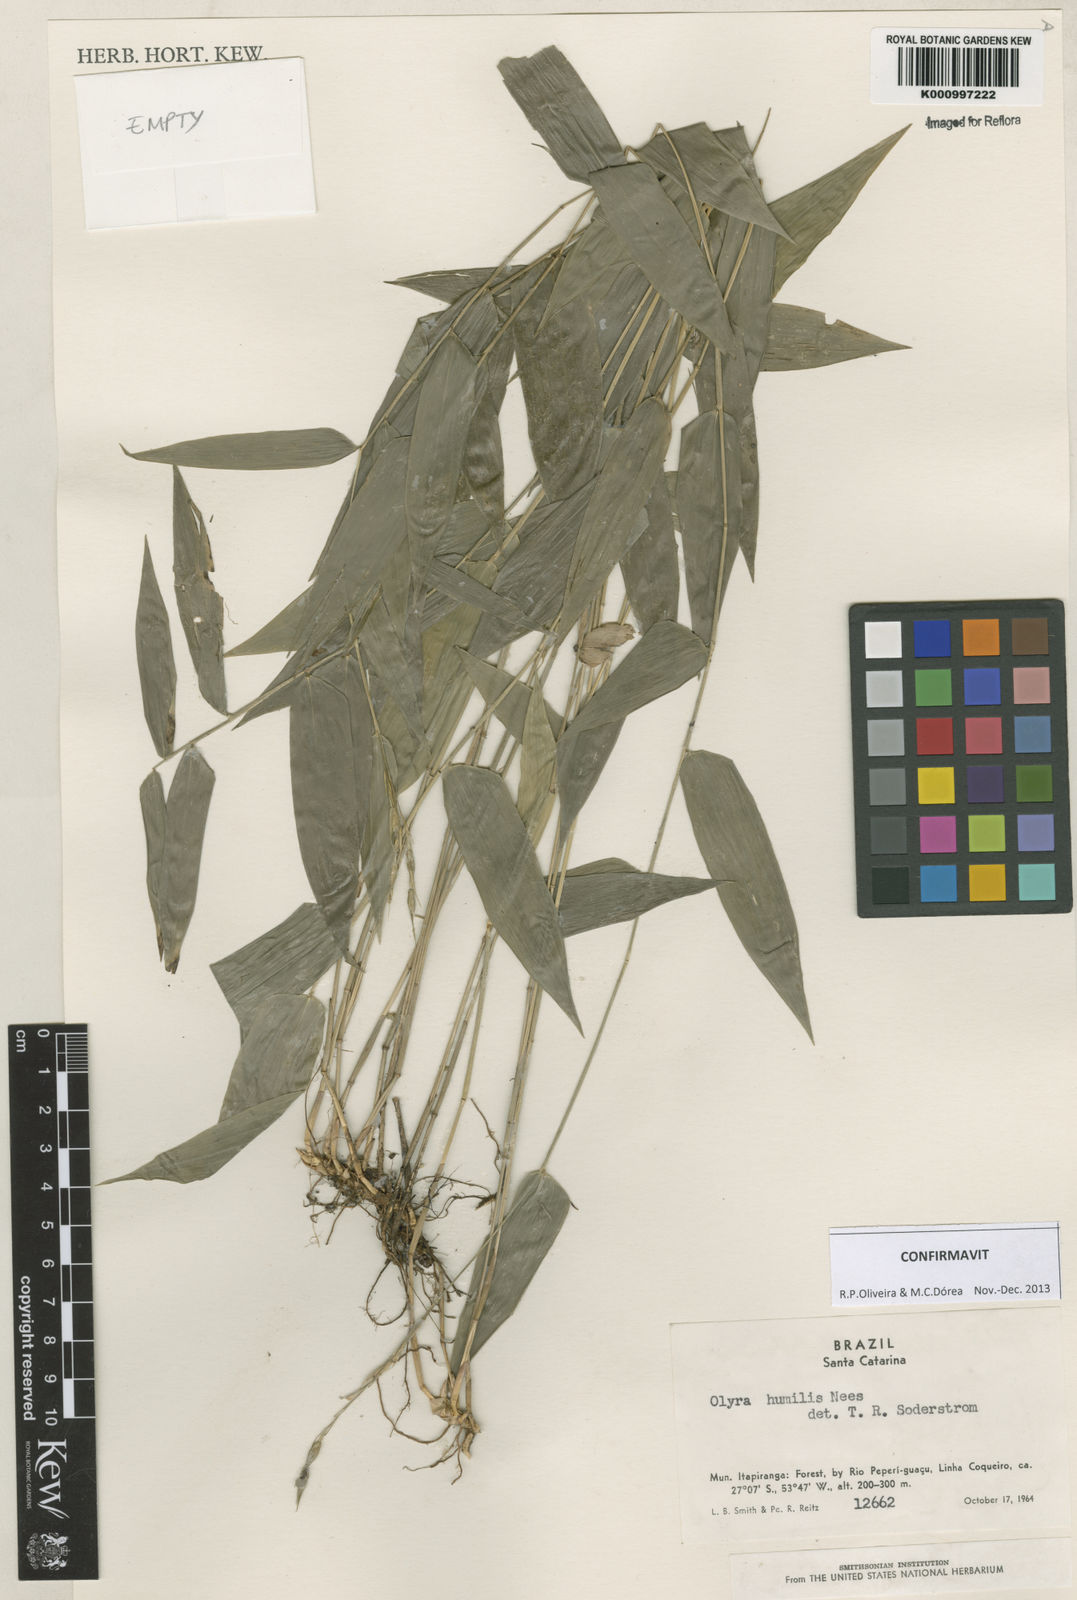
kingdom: Plantae
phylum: Tracheophyta
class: Liliopsida
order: Poales
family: Poaceae
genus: Olyra
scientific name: Olyra humilis
